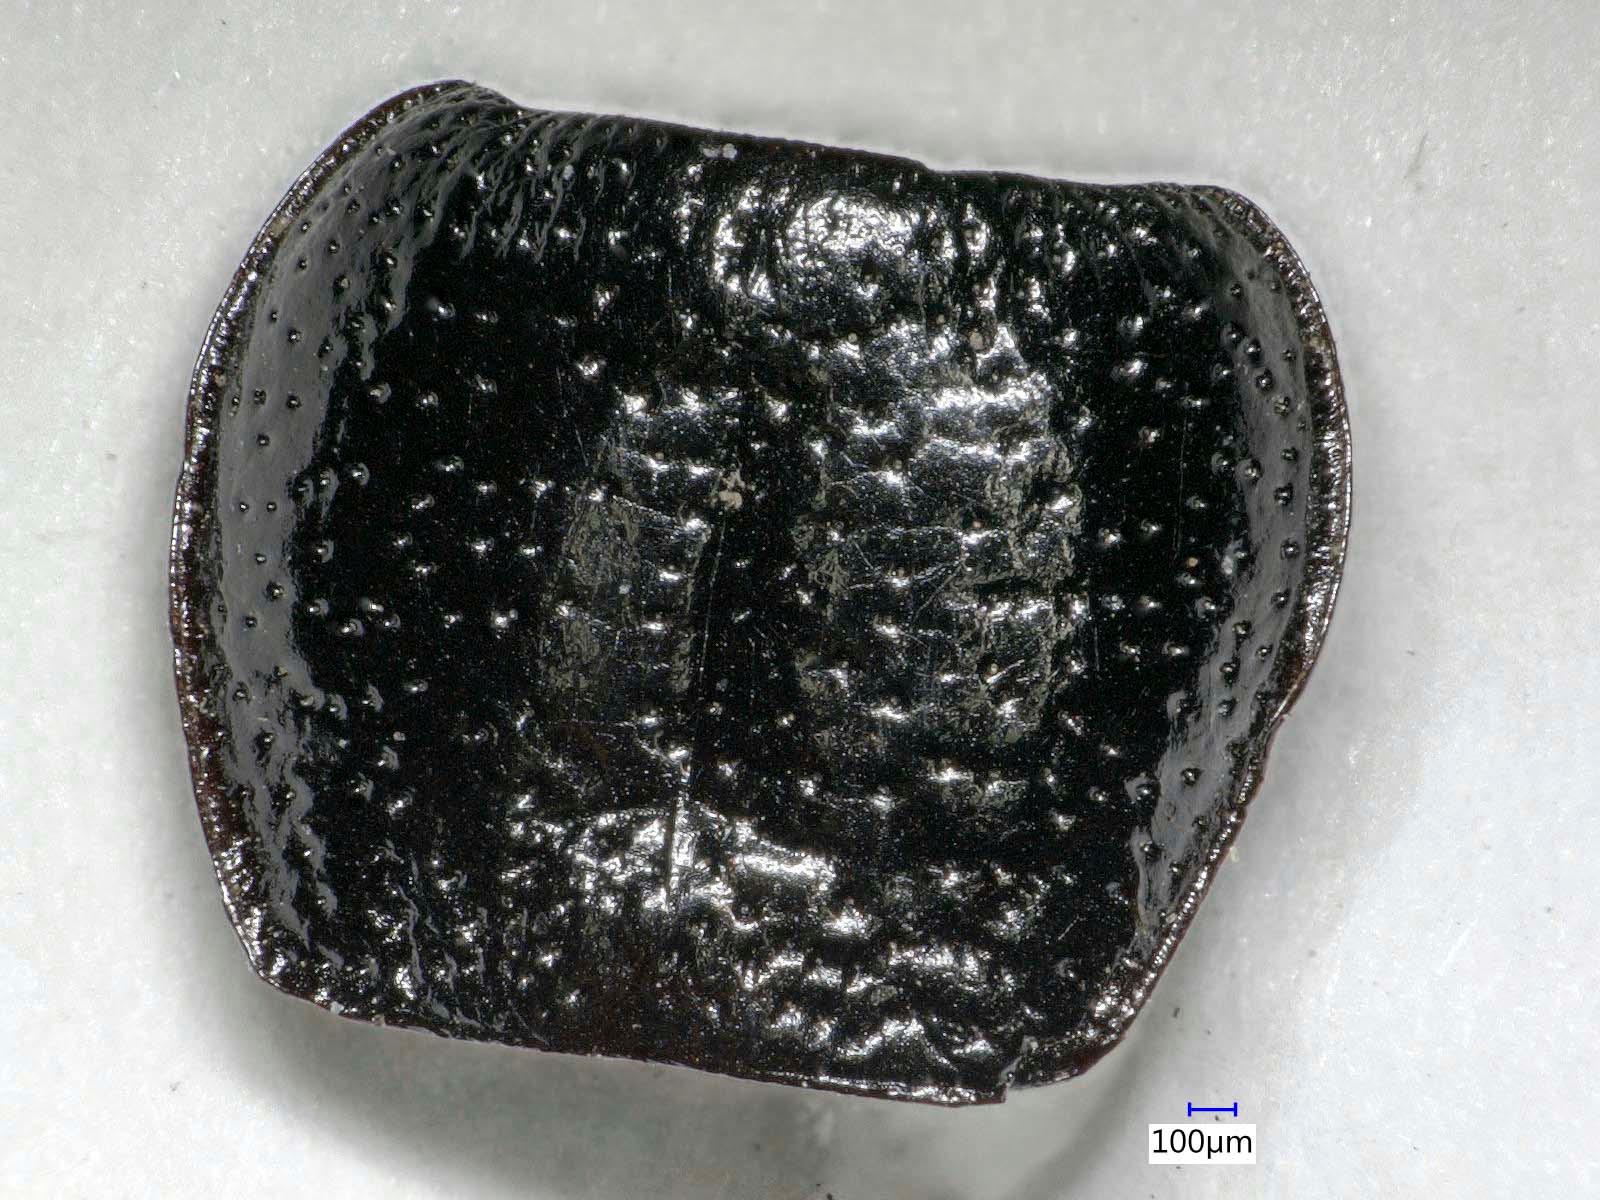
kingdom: Animalia
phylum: Arthropoda
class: Insecta
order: Coleoptera
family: Carabidae
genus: Dicheirus
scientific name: Dicheirus dilatatus
